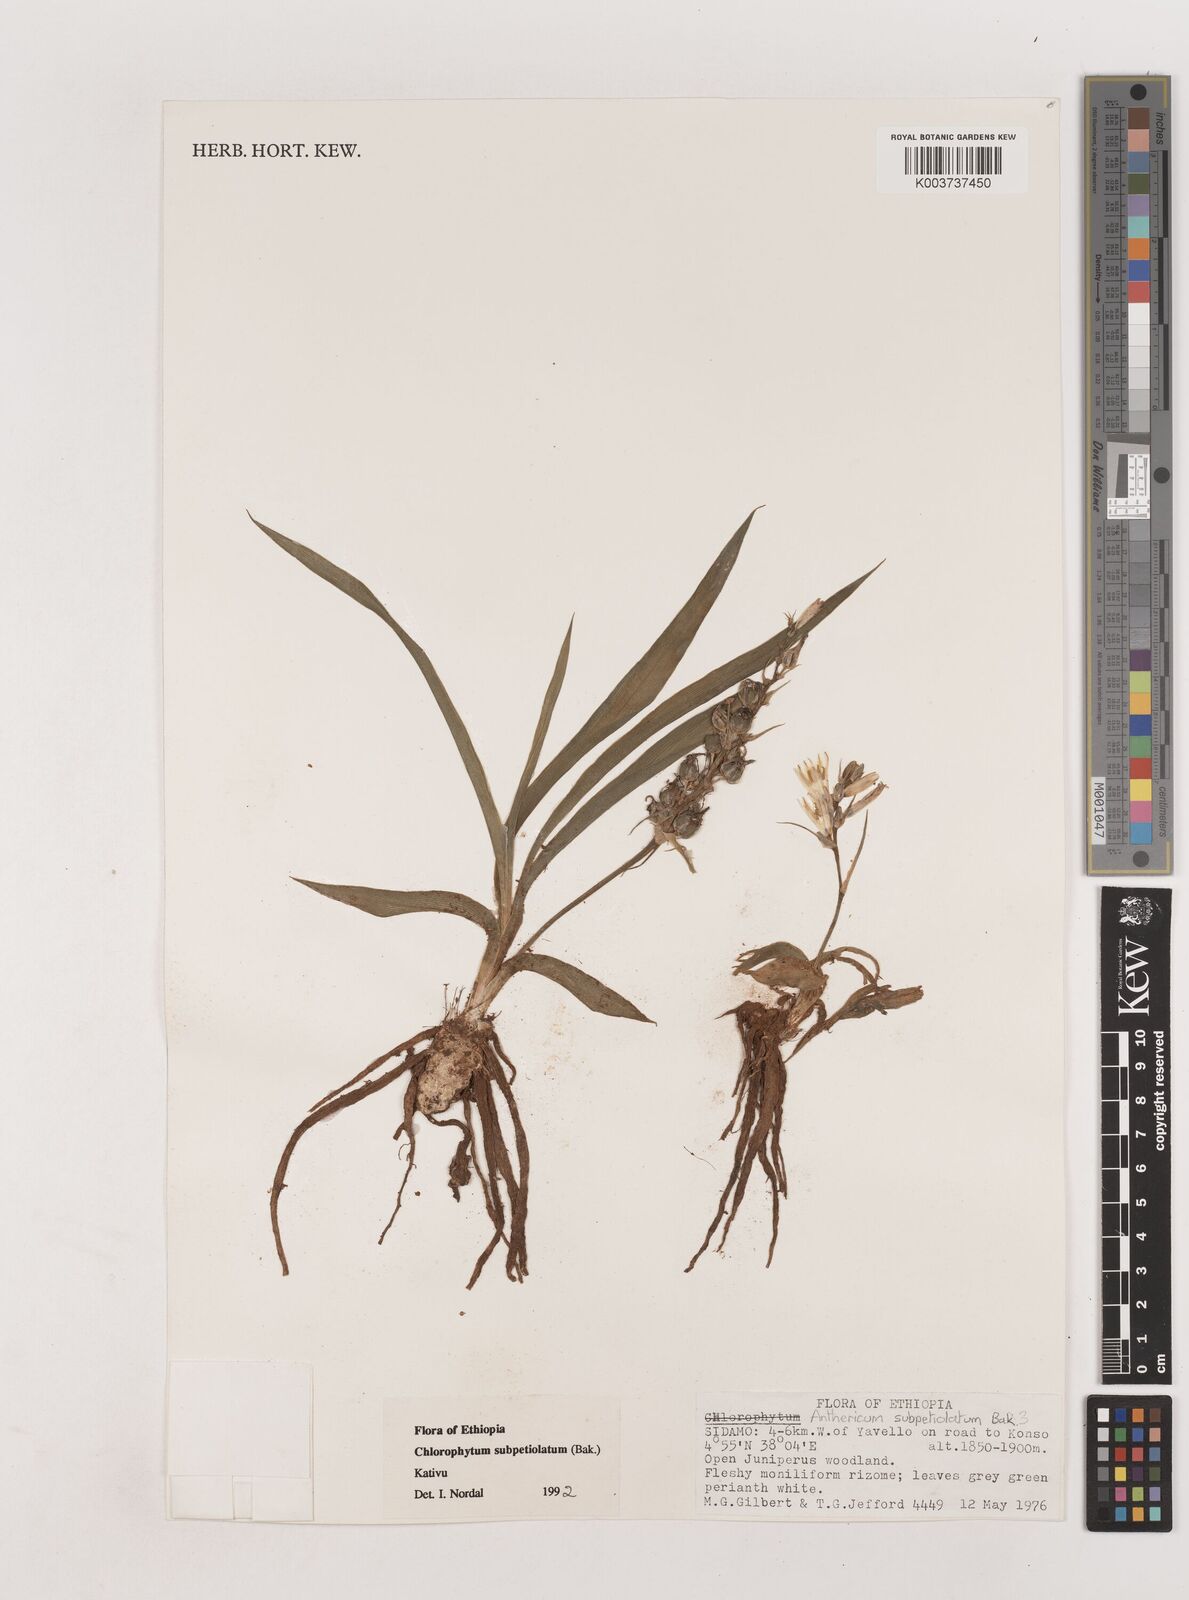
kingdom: Plantae
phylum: Tracheophyta
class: Liliopsida
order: Asparagales
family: Asparagaceae
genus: Chlorophytum
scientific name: Chlorophytum subpetiolatum
